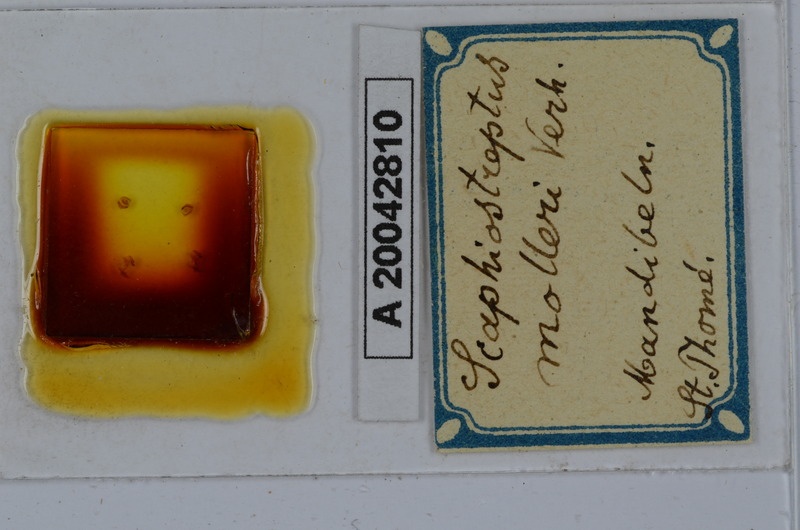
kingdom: Animalia
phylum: Arthropoda
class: Diplopoda
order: Spirostreptida
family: Spirostreptidae
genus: Globanus
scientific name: Globanus integer
